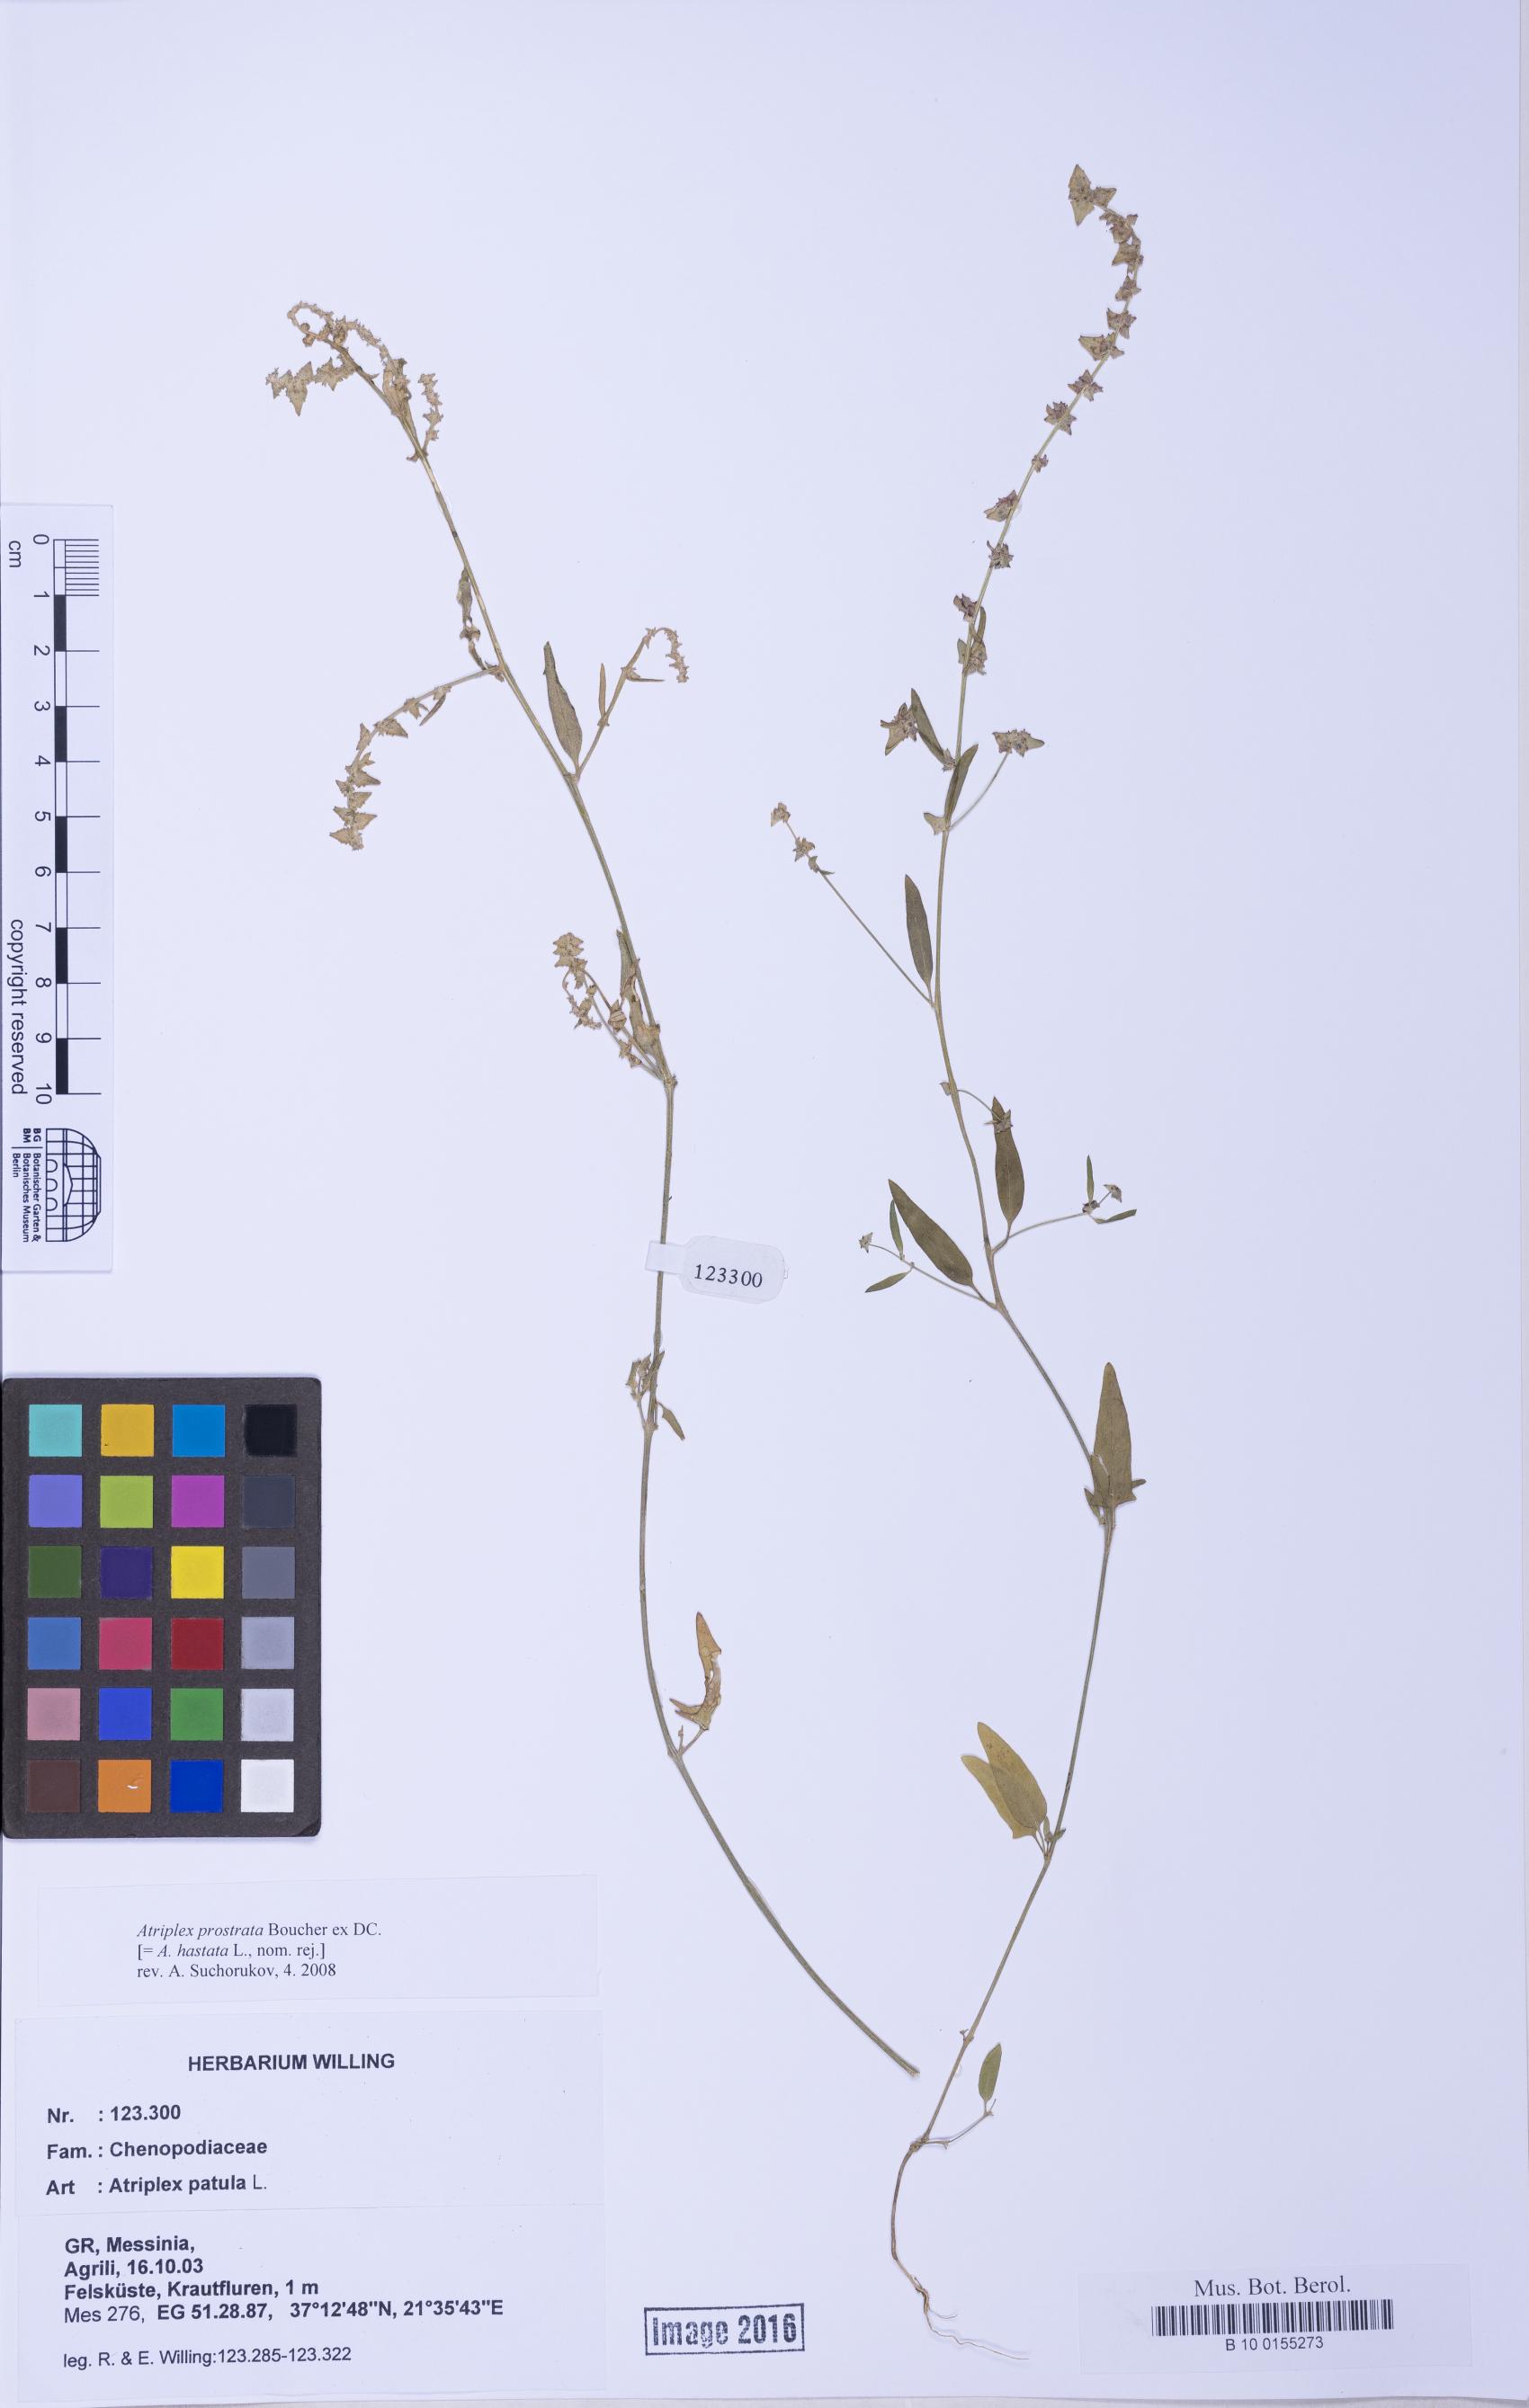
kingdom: Plantae
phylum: Tracheophyta
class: Magnoliopsida
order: Caryophyllales
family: Amaranthaceae
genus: Atriplex
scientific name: Atriplex prostrata
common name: Spear-leaved orache
